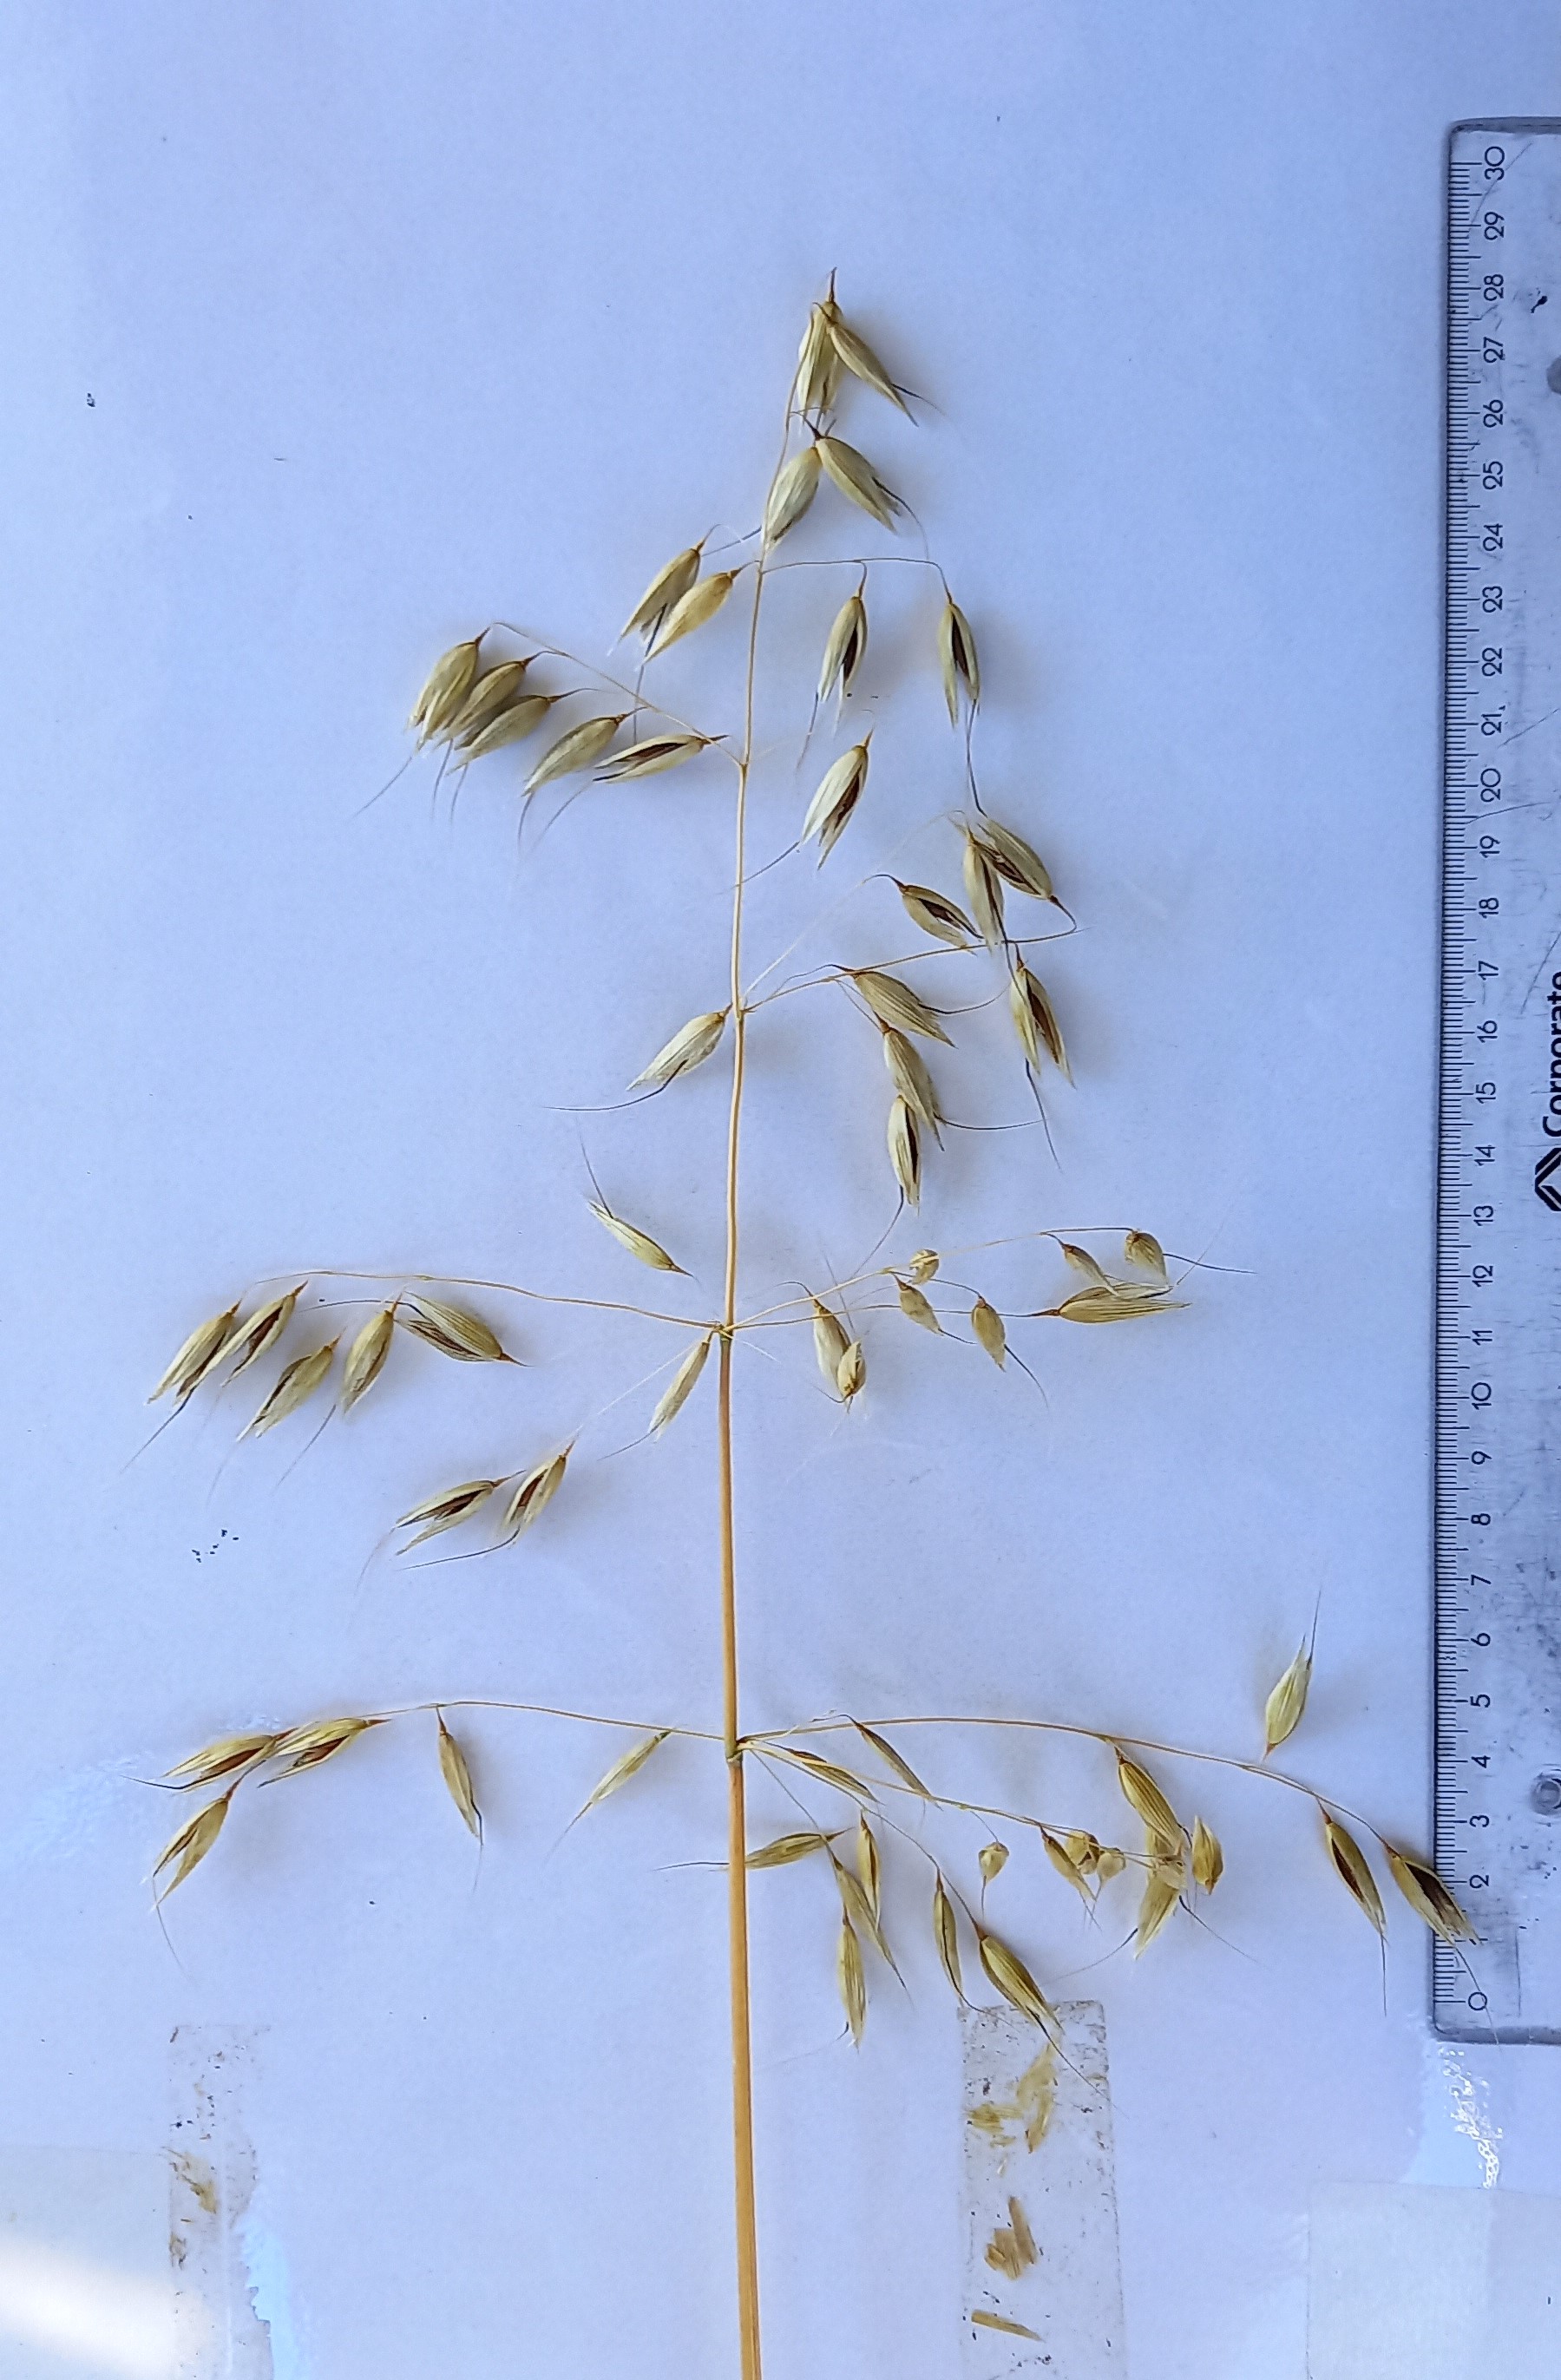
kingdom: Plantae
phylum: Tracheophyta
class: Liliopsida
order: Poales
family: Poaceae
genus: Avena
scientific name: Avena sativa
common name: Oat
